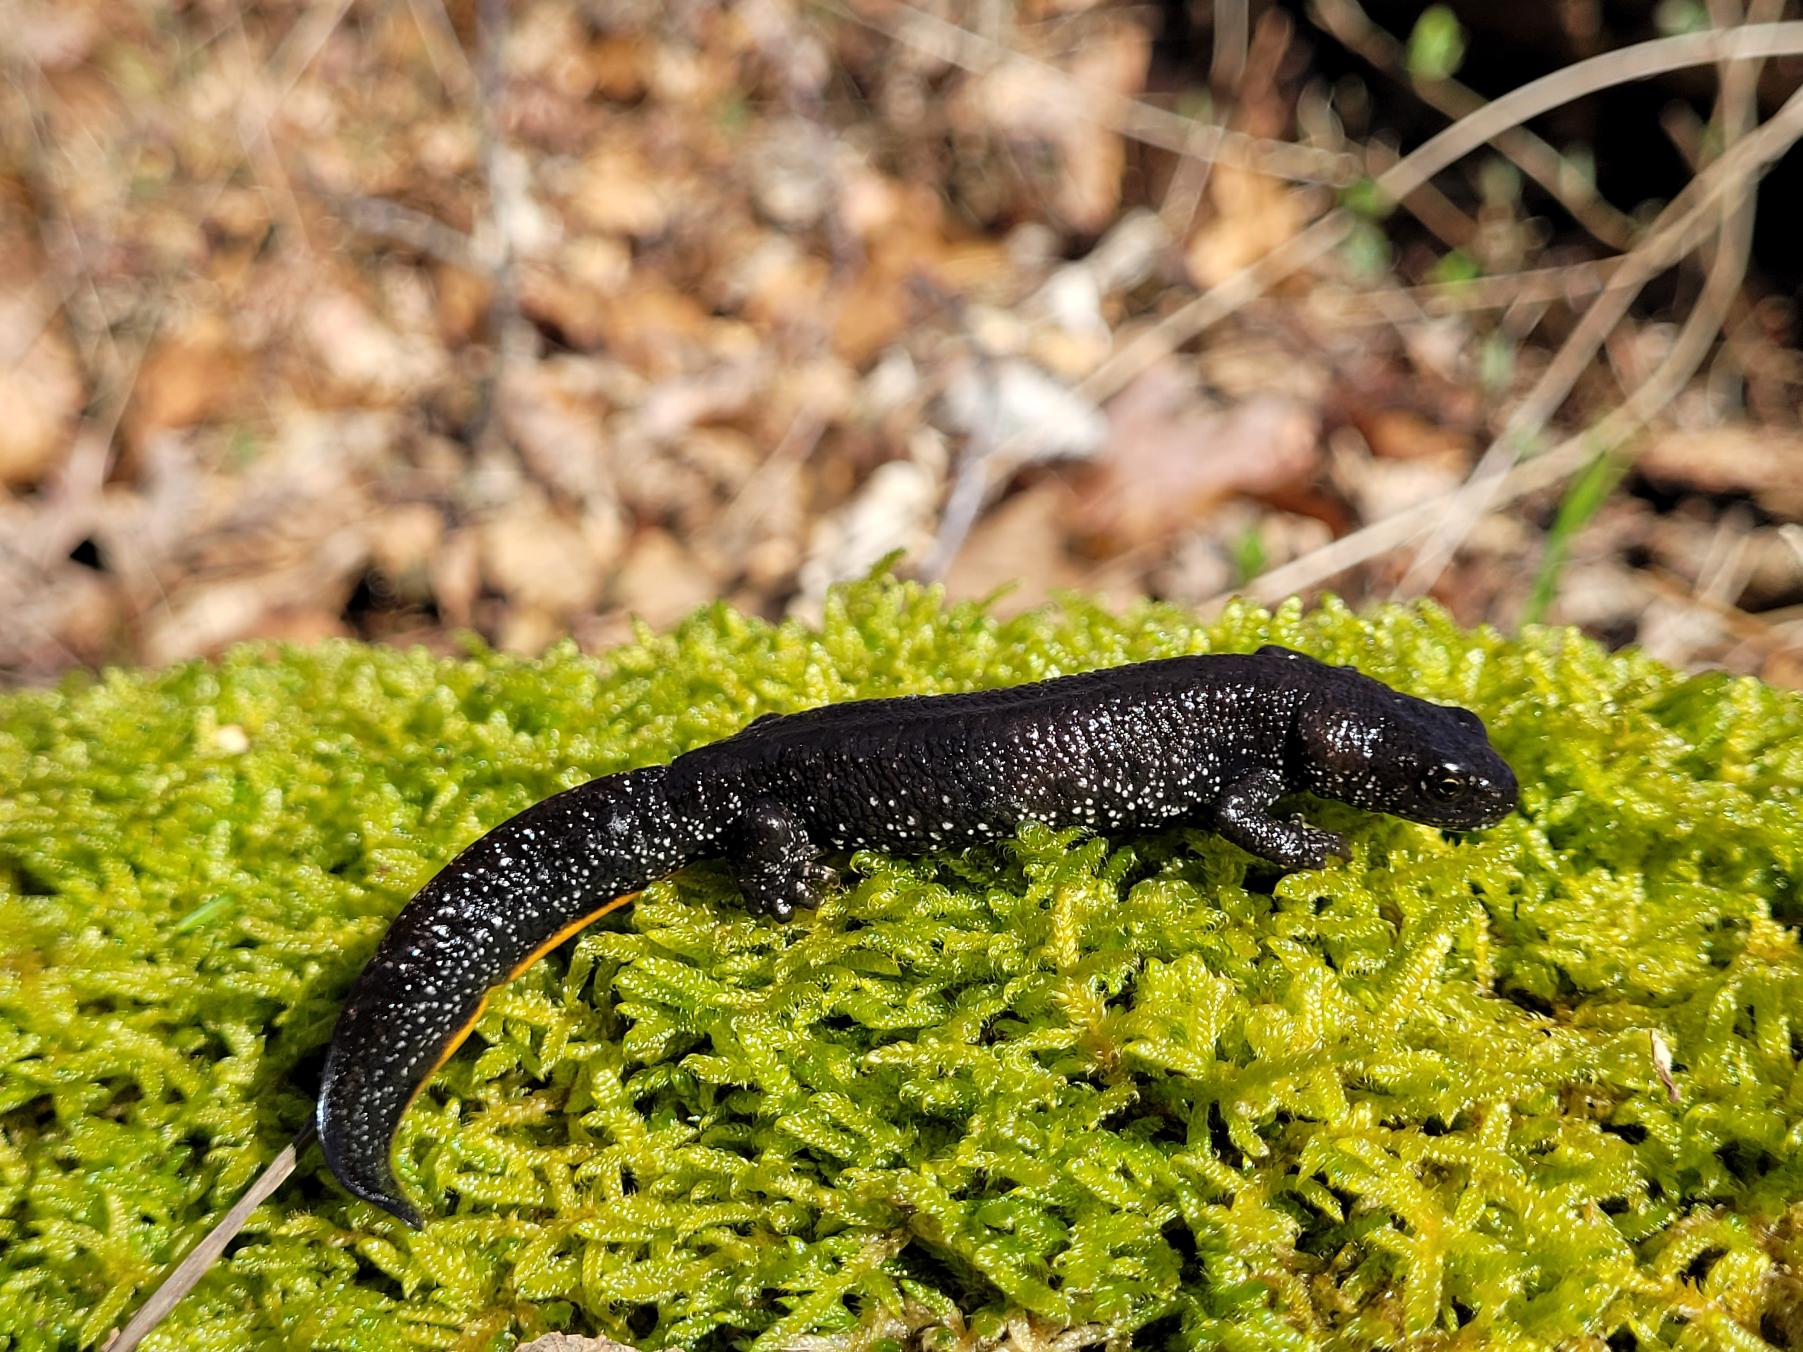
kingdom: Animalia
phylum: Chordata
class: Amphibia
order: Caudata
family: Salamandridae
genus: Triturus
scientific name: Triturus cristatus
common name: Stor vandsalamander
